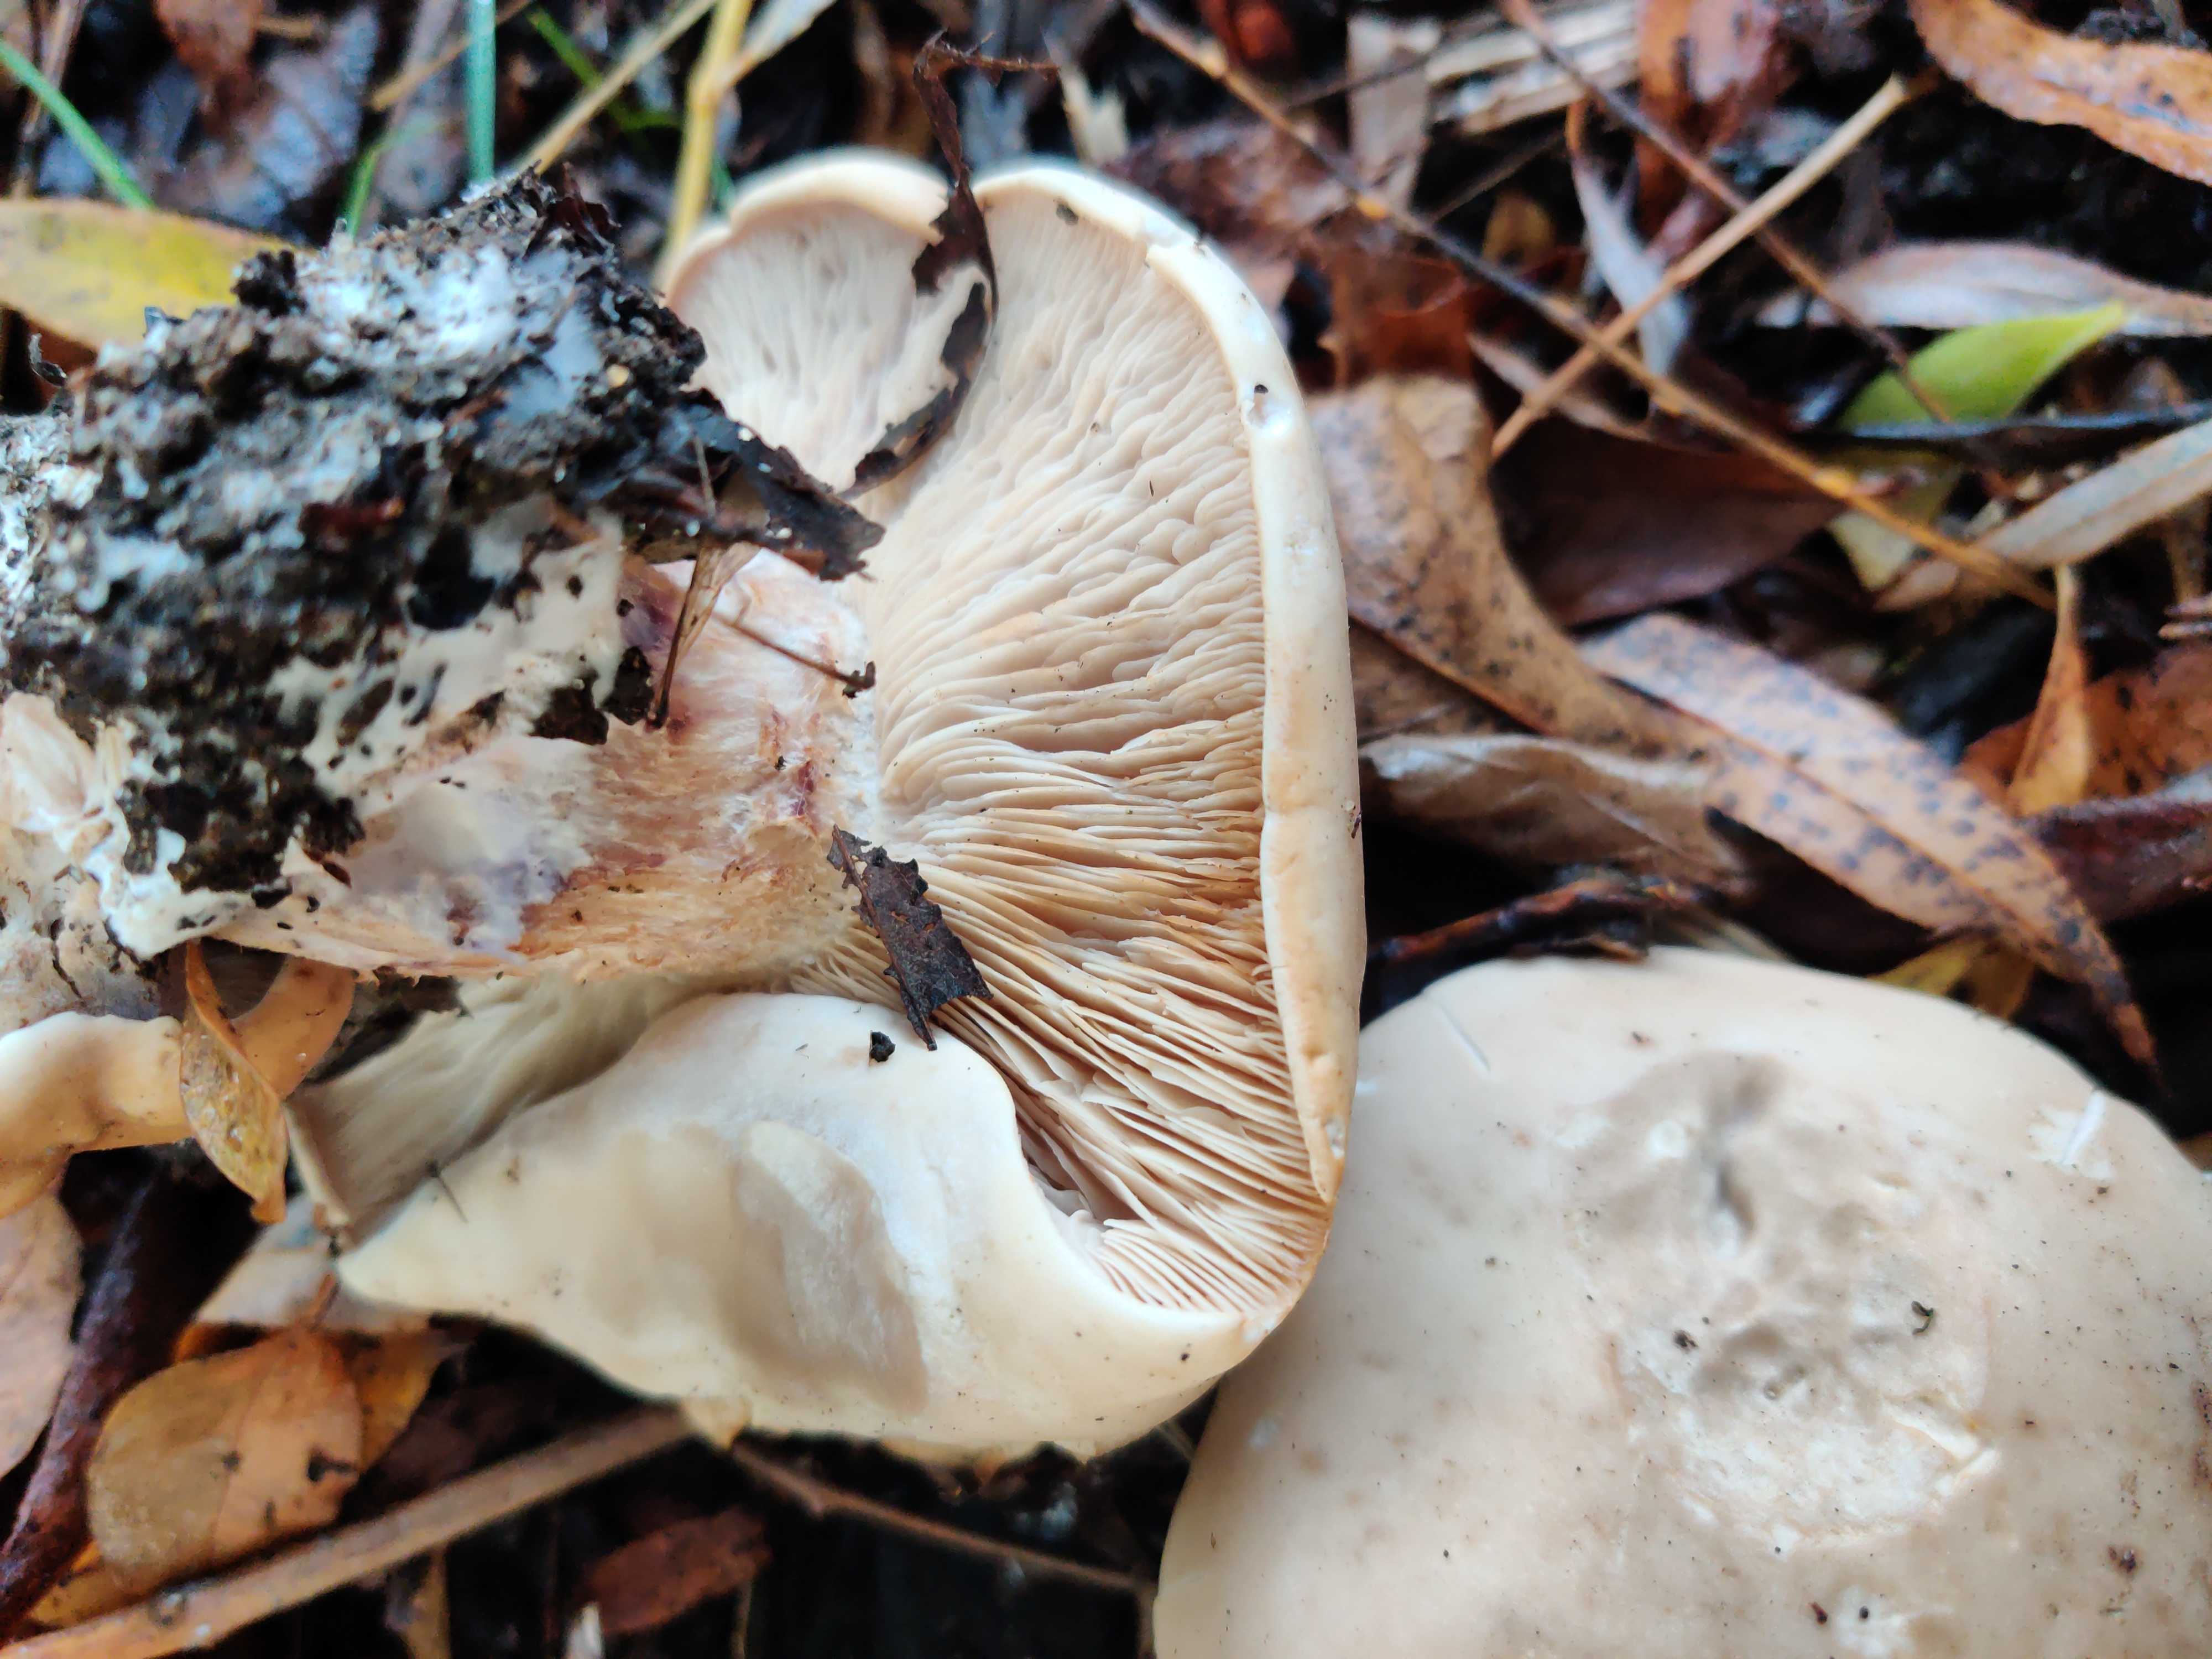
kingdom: Fungi
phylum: Basidiomycota
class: Agaricomycetes
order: Agaricales
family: Tricholomataceae
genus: Lepista
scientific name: Lepista
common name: hekseringshat
